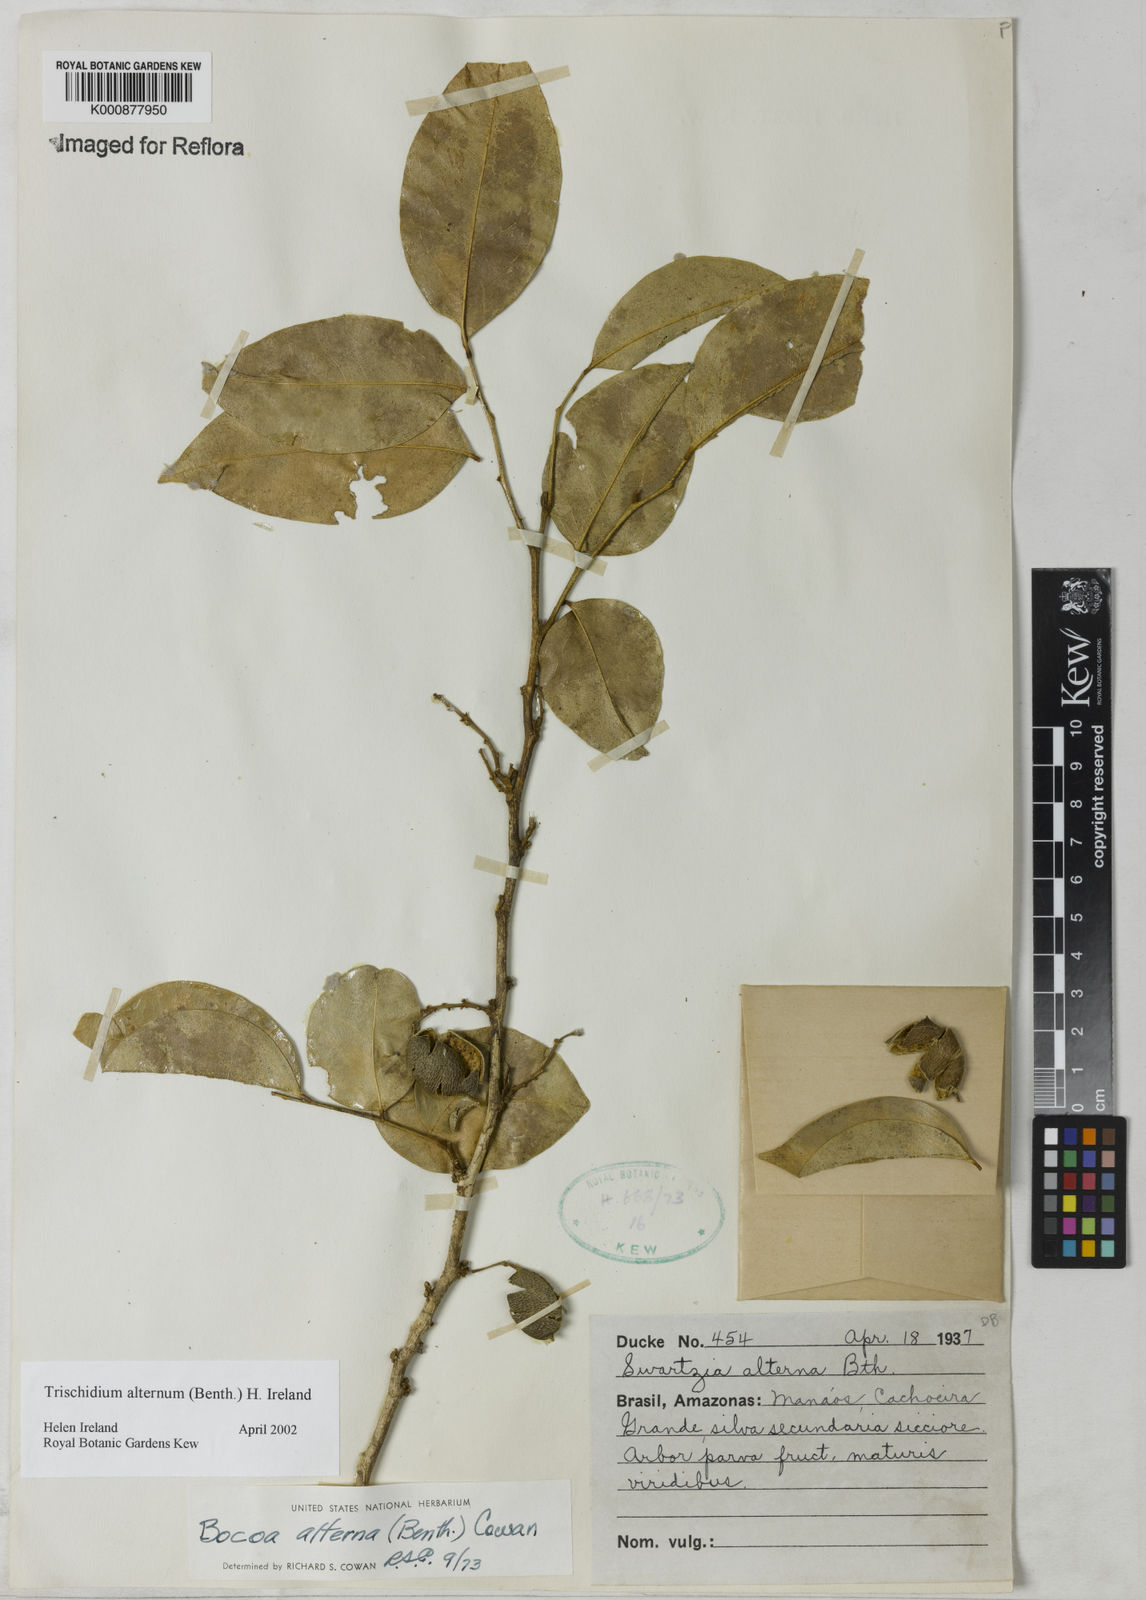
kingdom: Plantae
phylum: Tracheophyta
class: Magnoliopsida
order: Fabales
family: Fabaceae
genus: Trischidium
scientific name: Trischidium alternum
